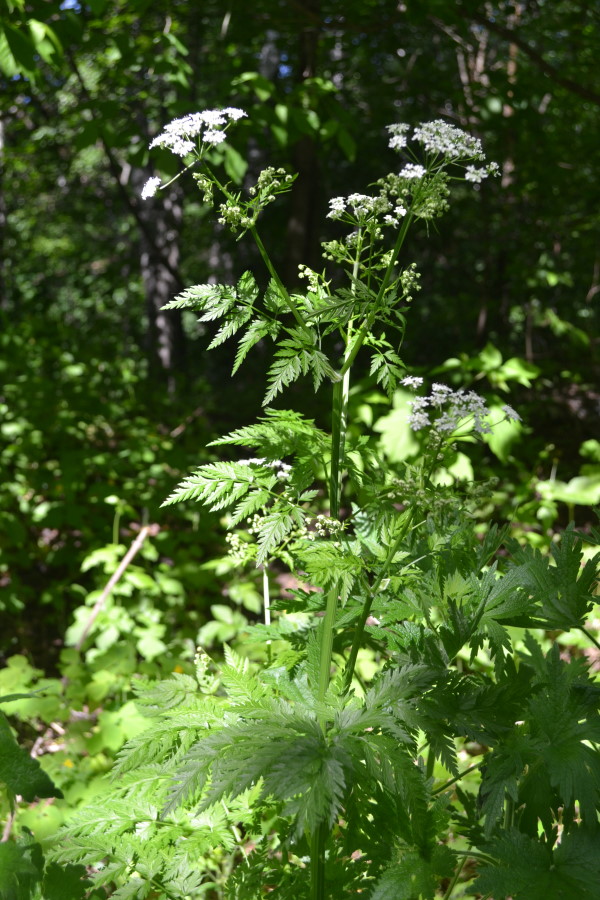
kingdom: Plantae
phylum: Tracheophyta
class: Magnoliopsida
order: Apiales
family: Apiaceae
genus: Anthriscus
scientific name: Anthriscus sylvestris
